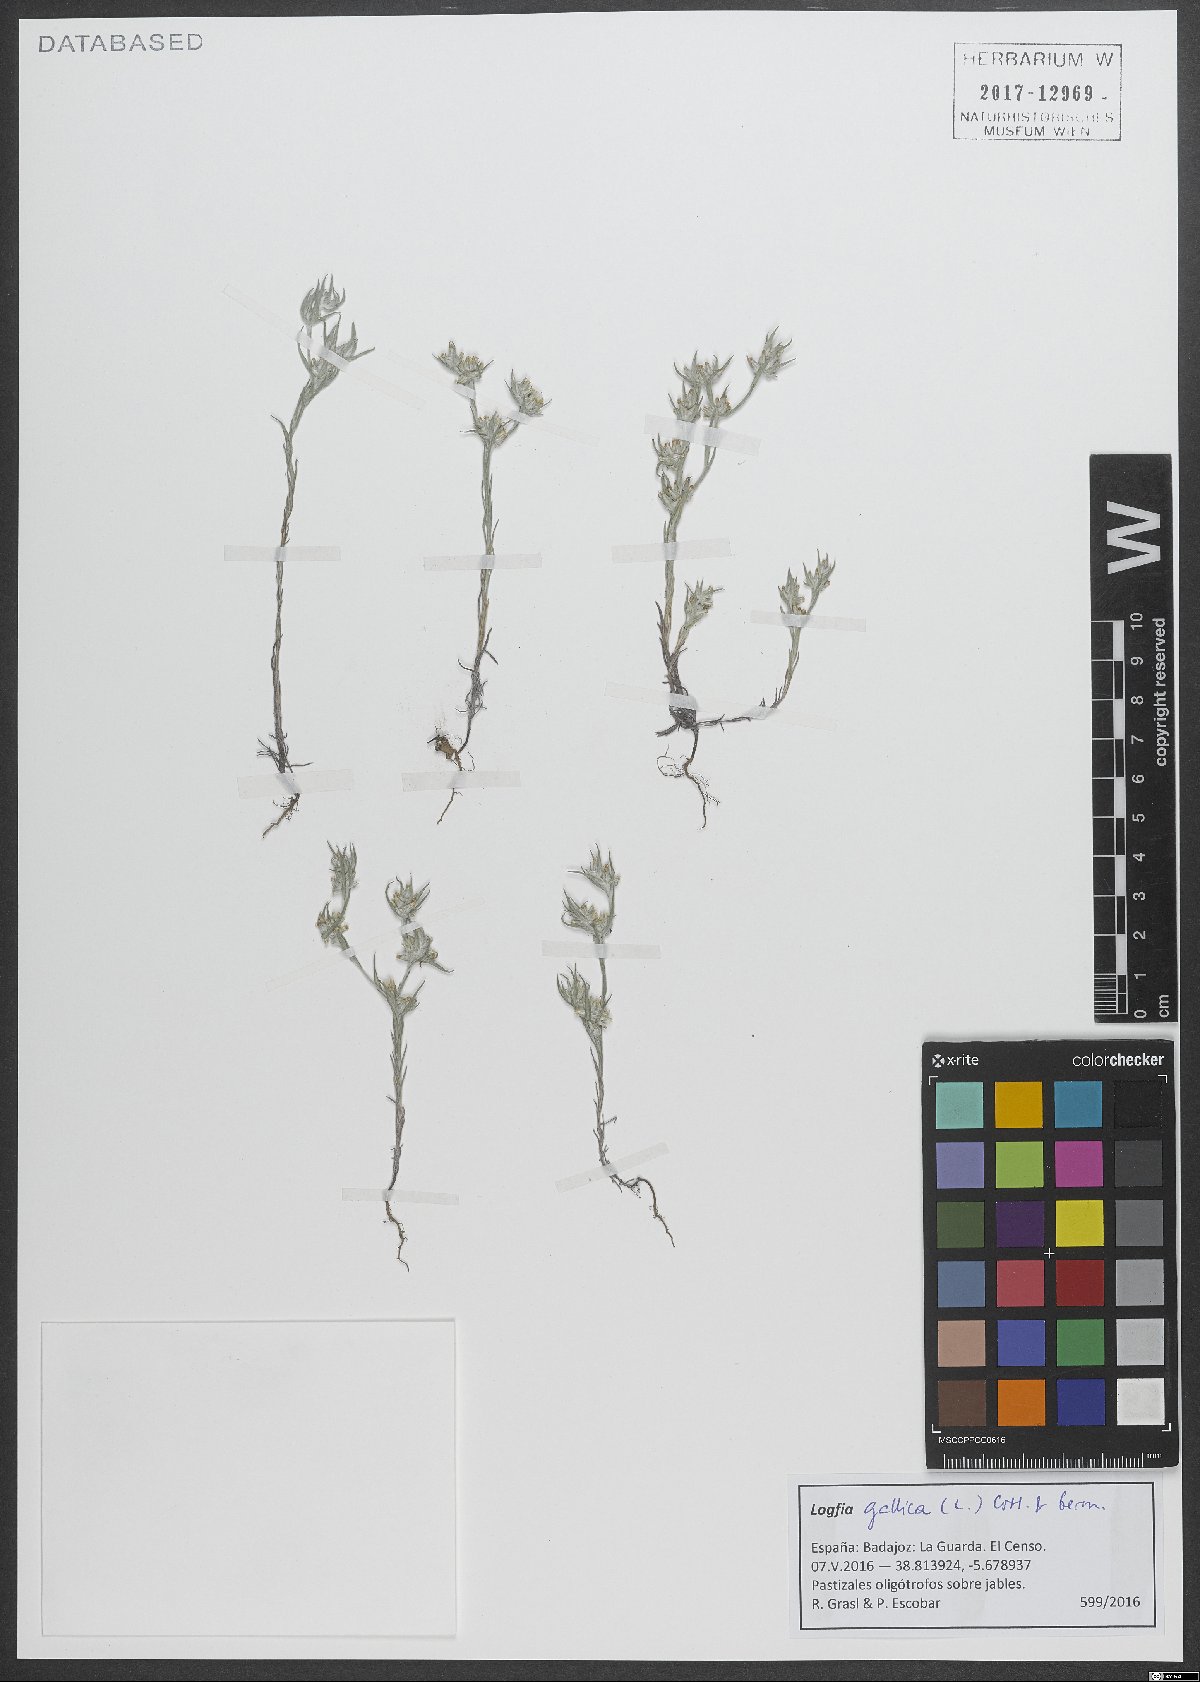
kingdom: Plantae
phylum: Tracheophyta
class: Magnoliopsida
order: Asterales
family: Asteraceae
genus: Logfia
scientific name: Logfia gallica
